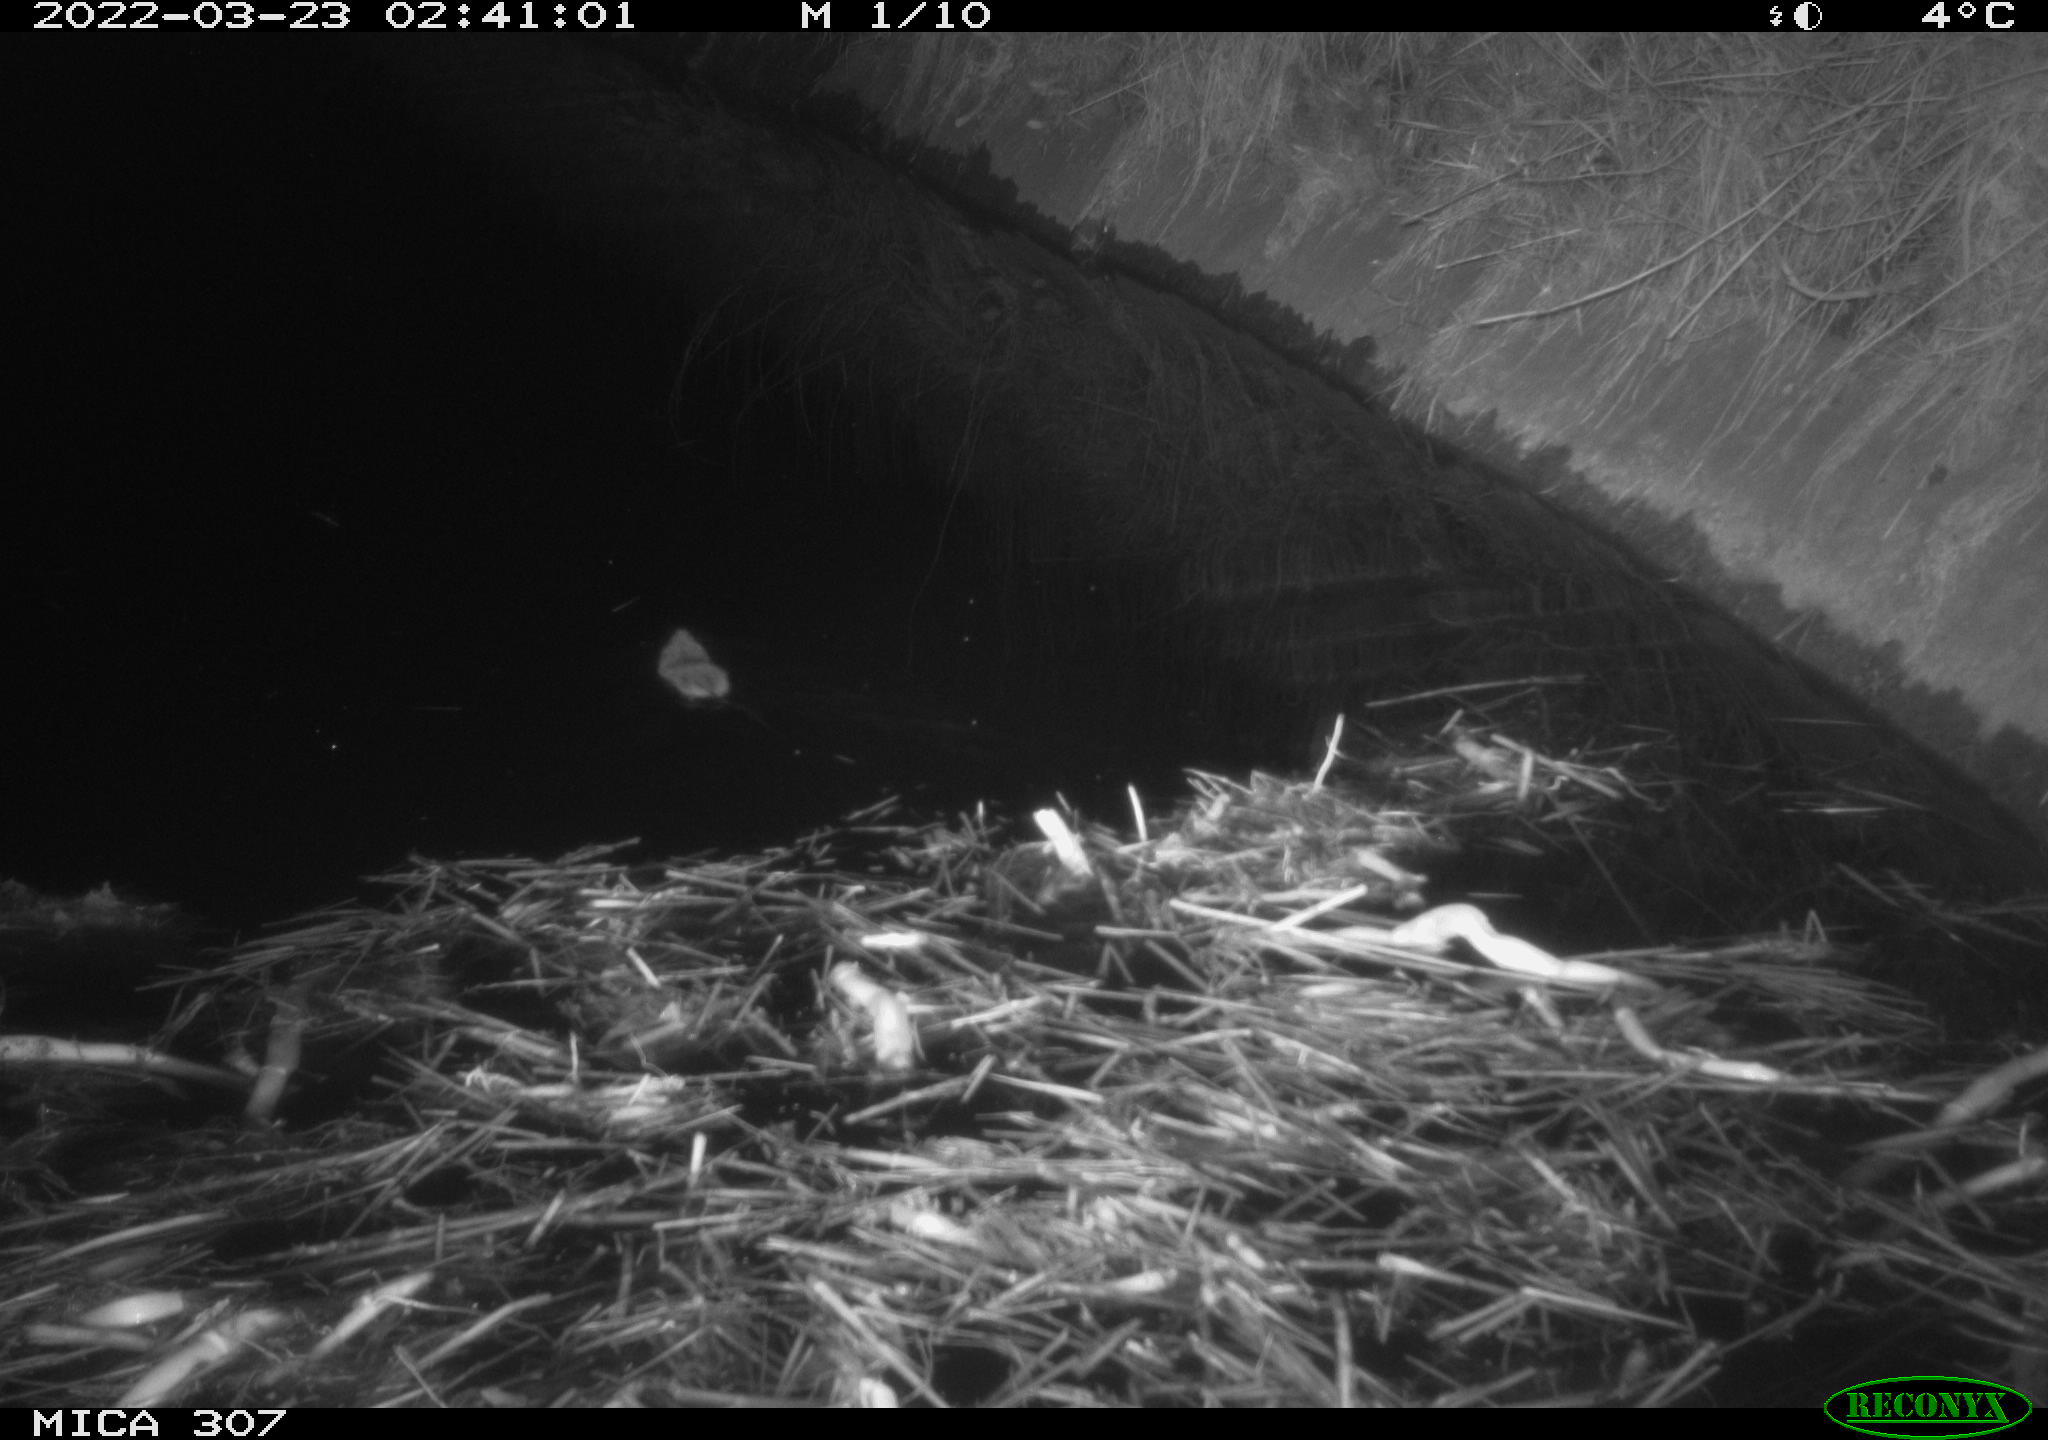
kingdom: Animalia
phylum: Chordata
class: Mammalia
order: Rodentia
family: Muridae
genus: Rattus
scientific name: Rattus norvegicus
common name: Brown rat
